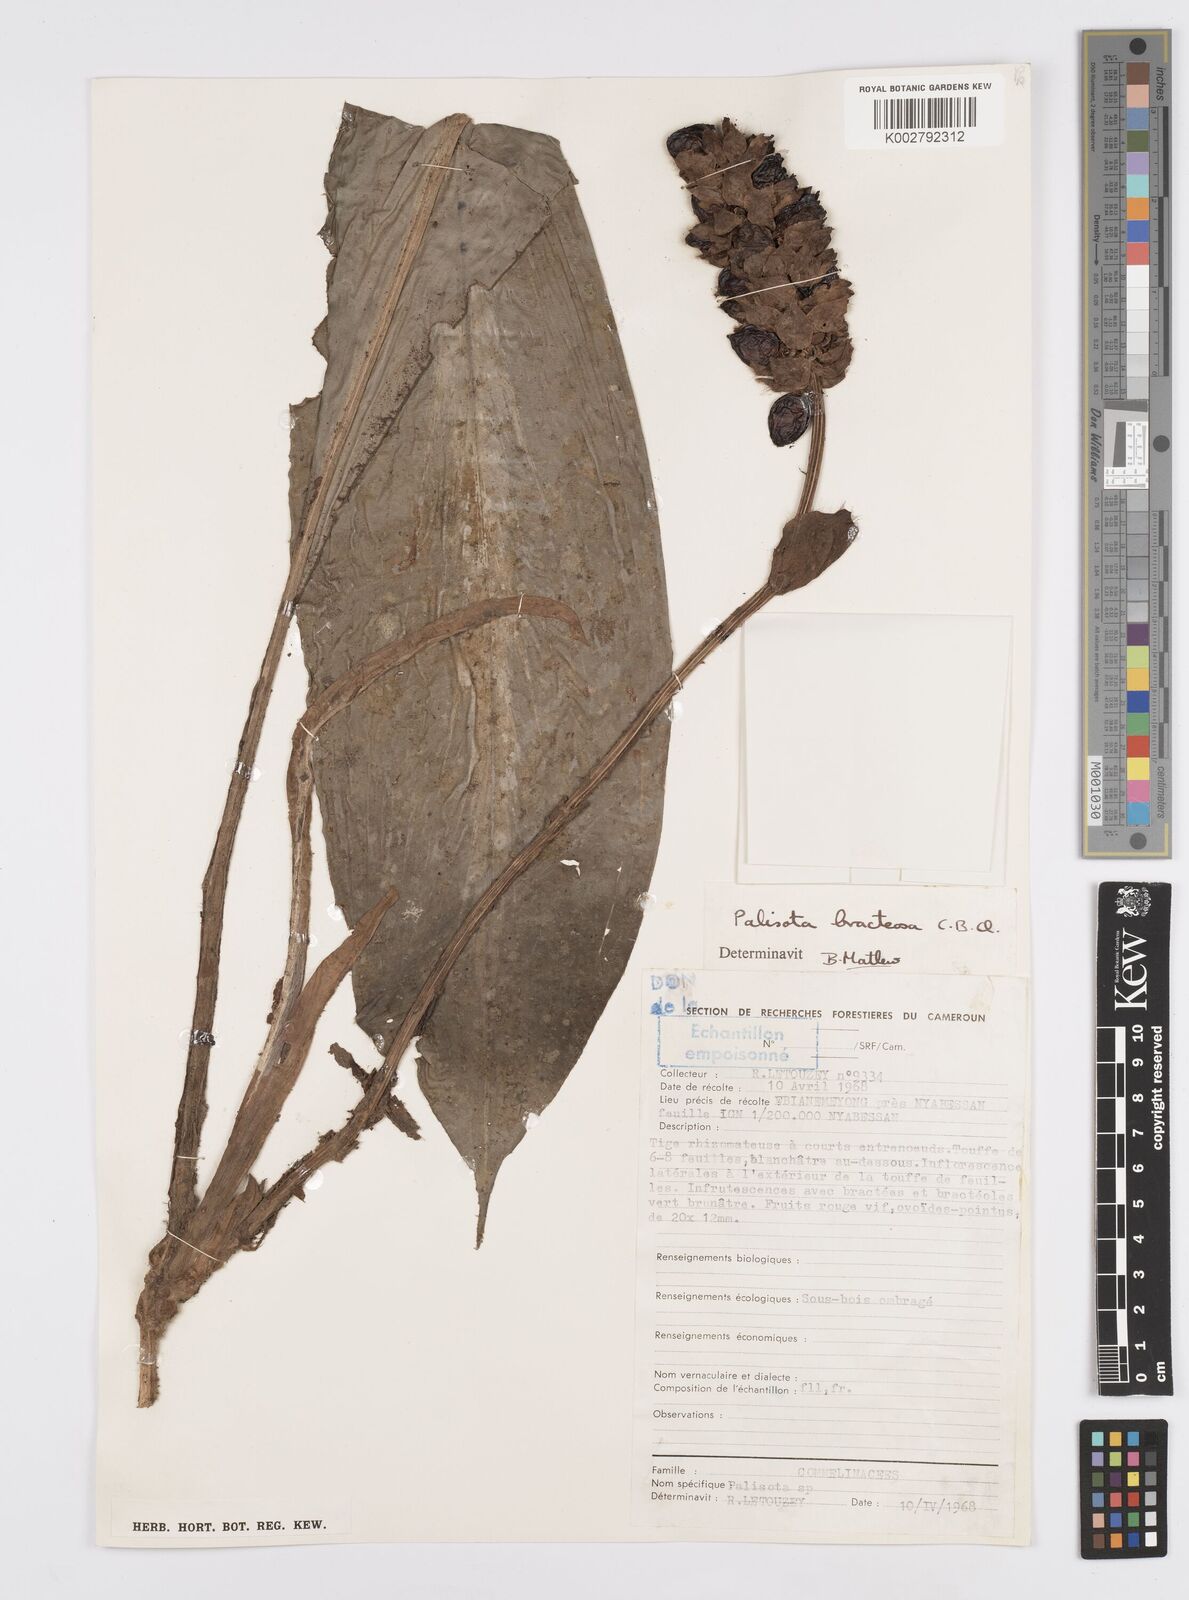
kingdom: Plantae
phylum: Tracheophyta
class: Liliopsida
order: Commelinales
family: Commelinaceae
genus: Palisota
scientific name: Palisota bracteosa
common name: Palisota
